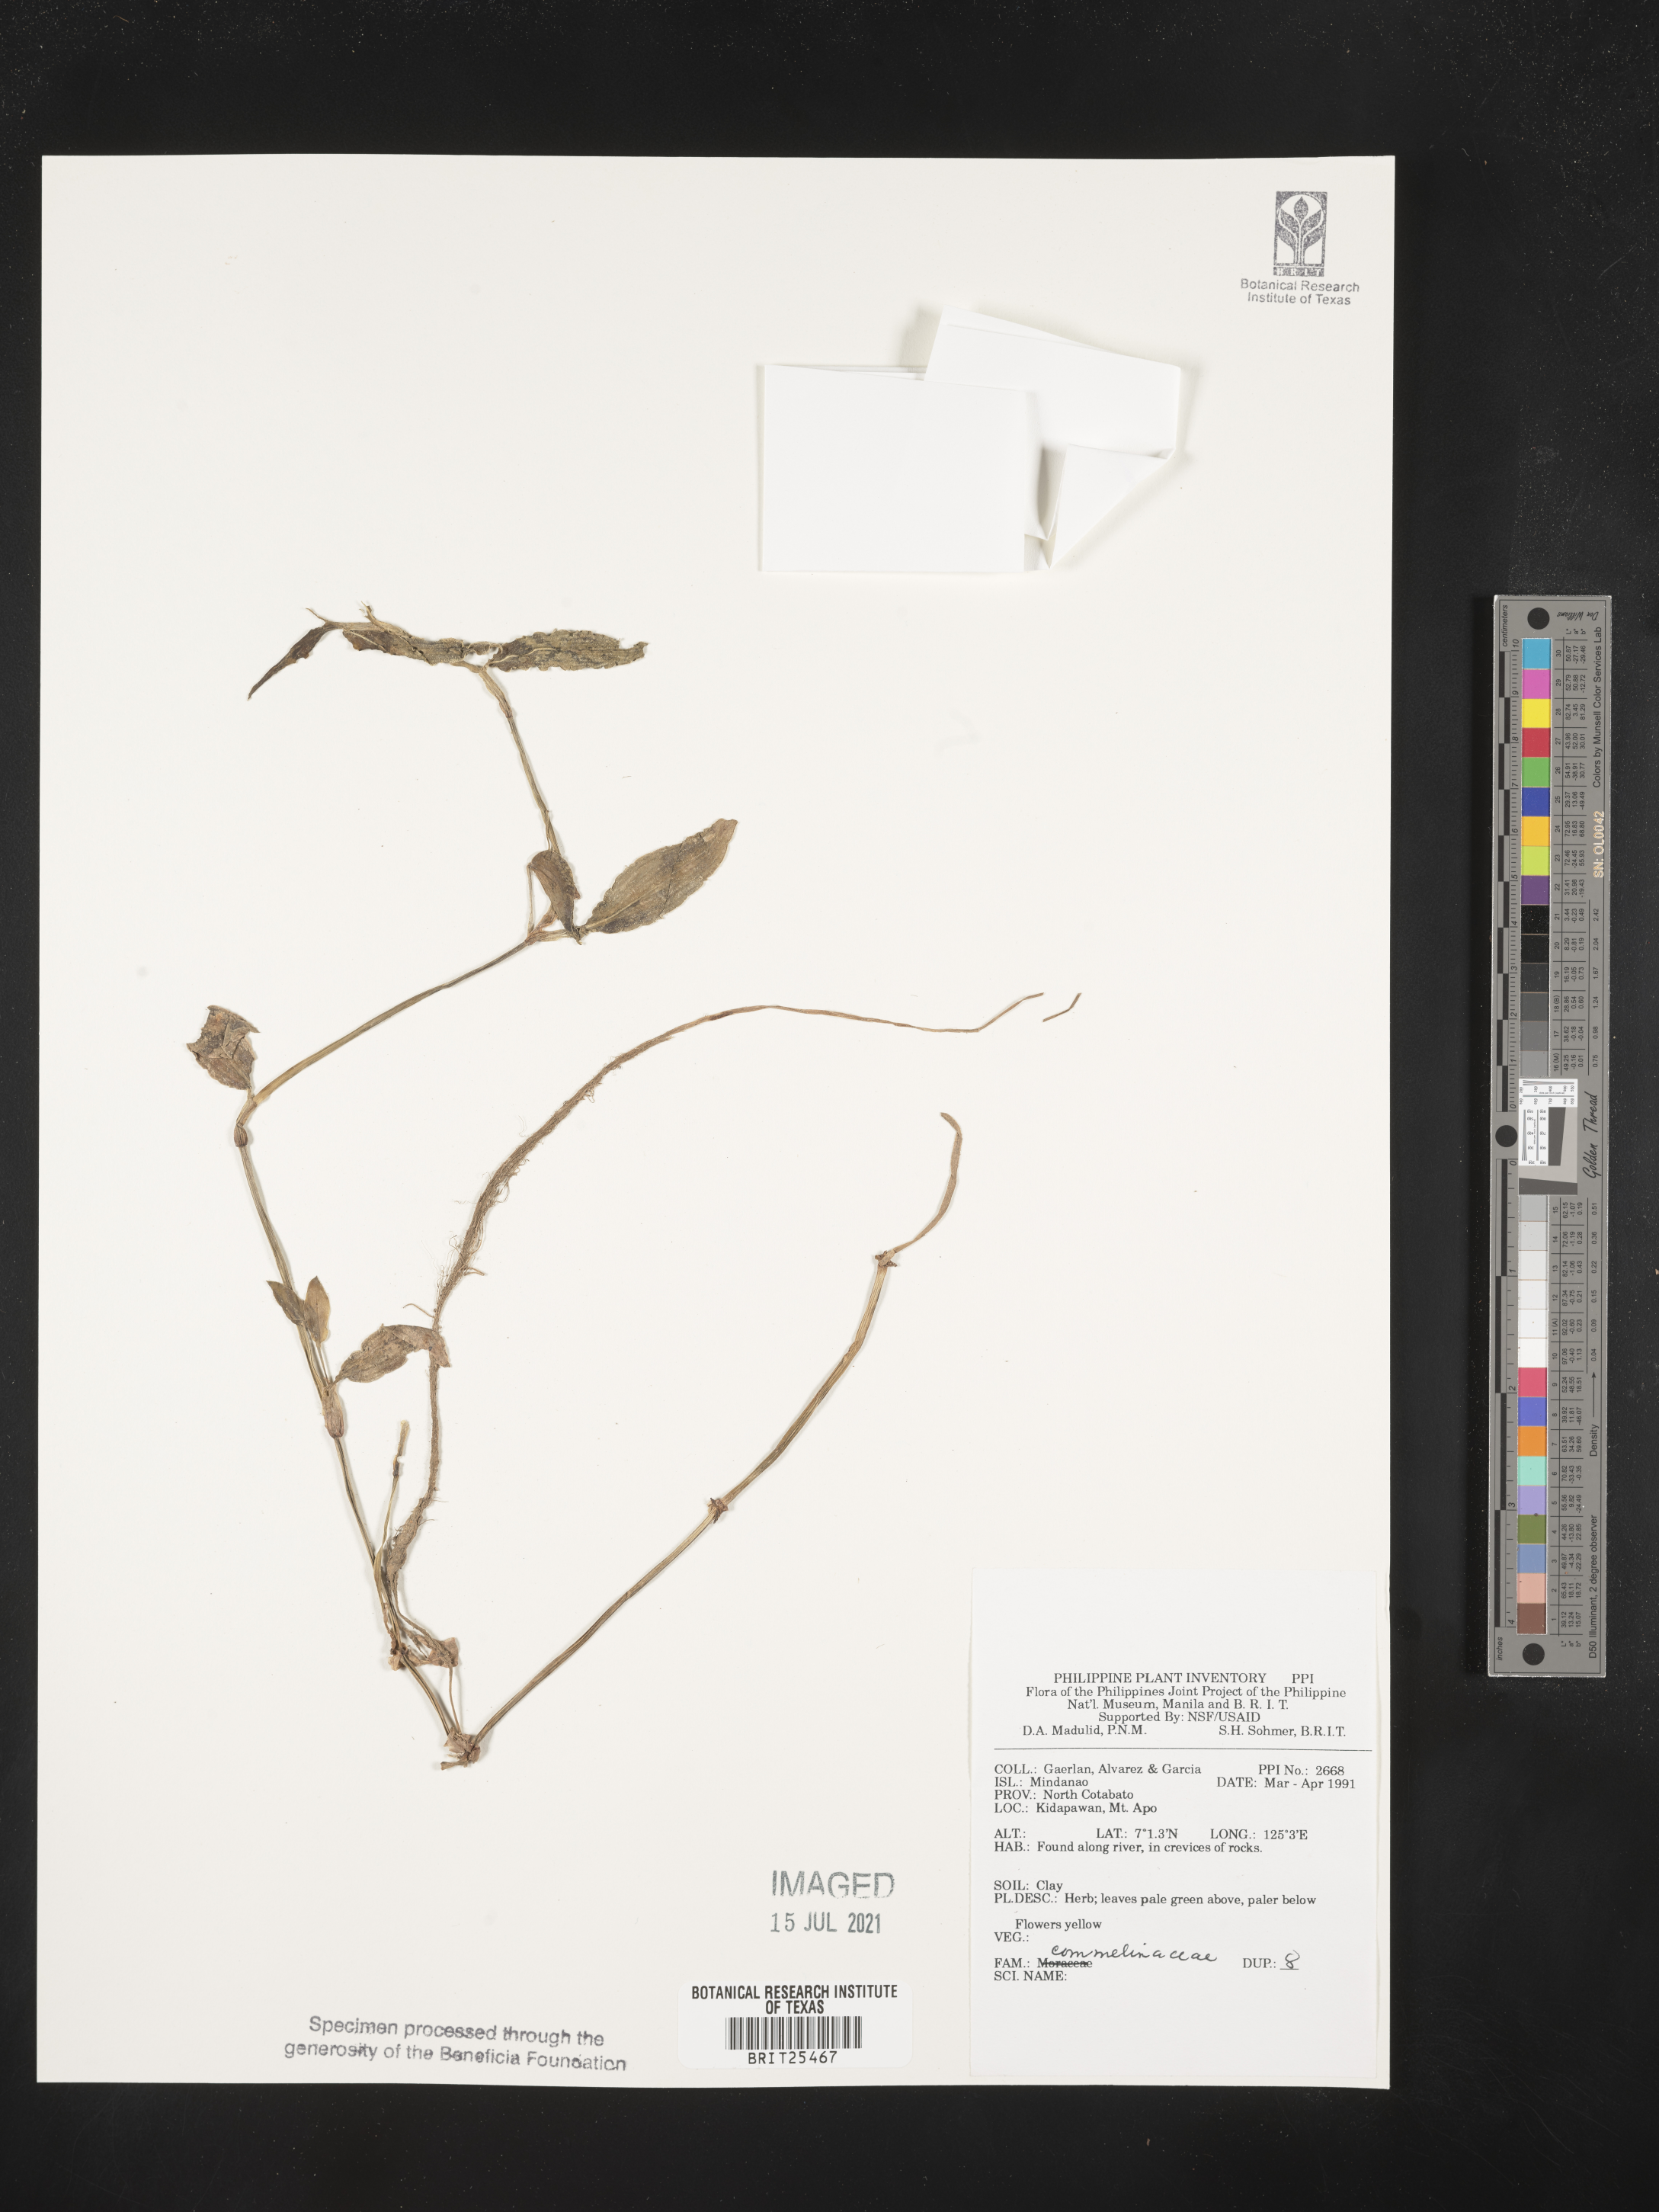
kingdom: Plantae
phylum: Tracheophyta
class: Liliopsida
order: Commelinales
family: Commelinaceae
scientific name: Commelinaceae
